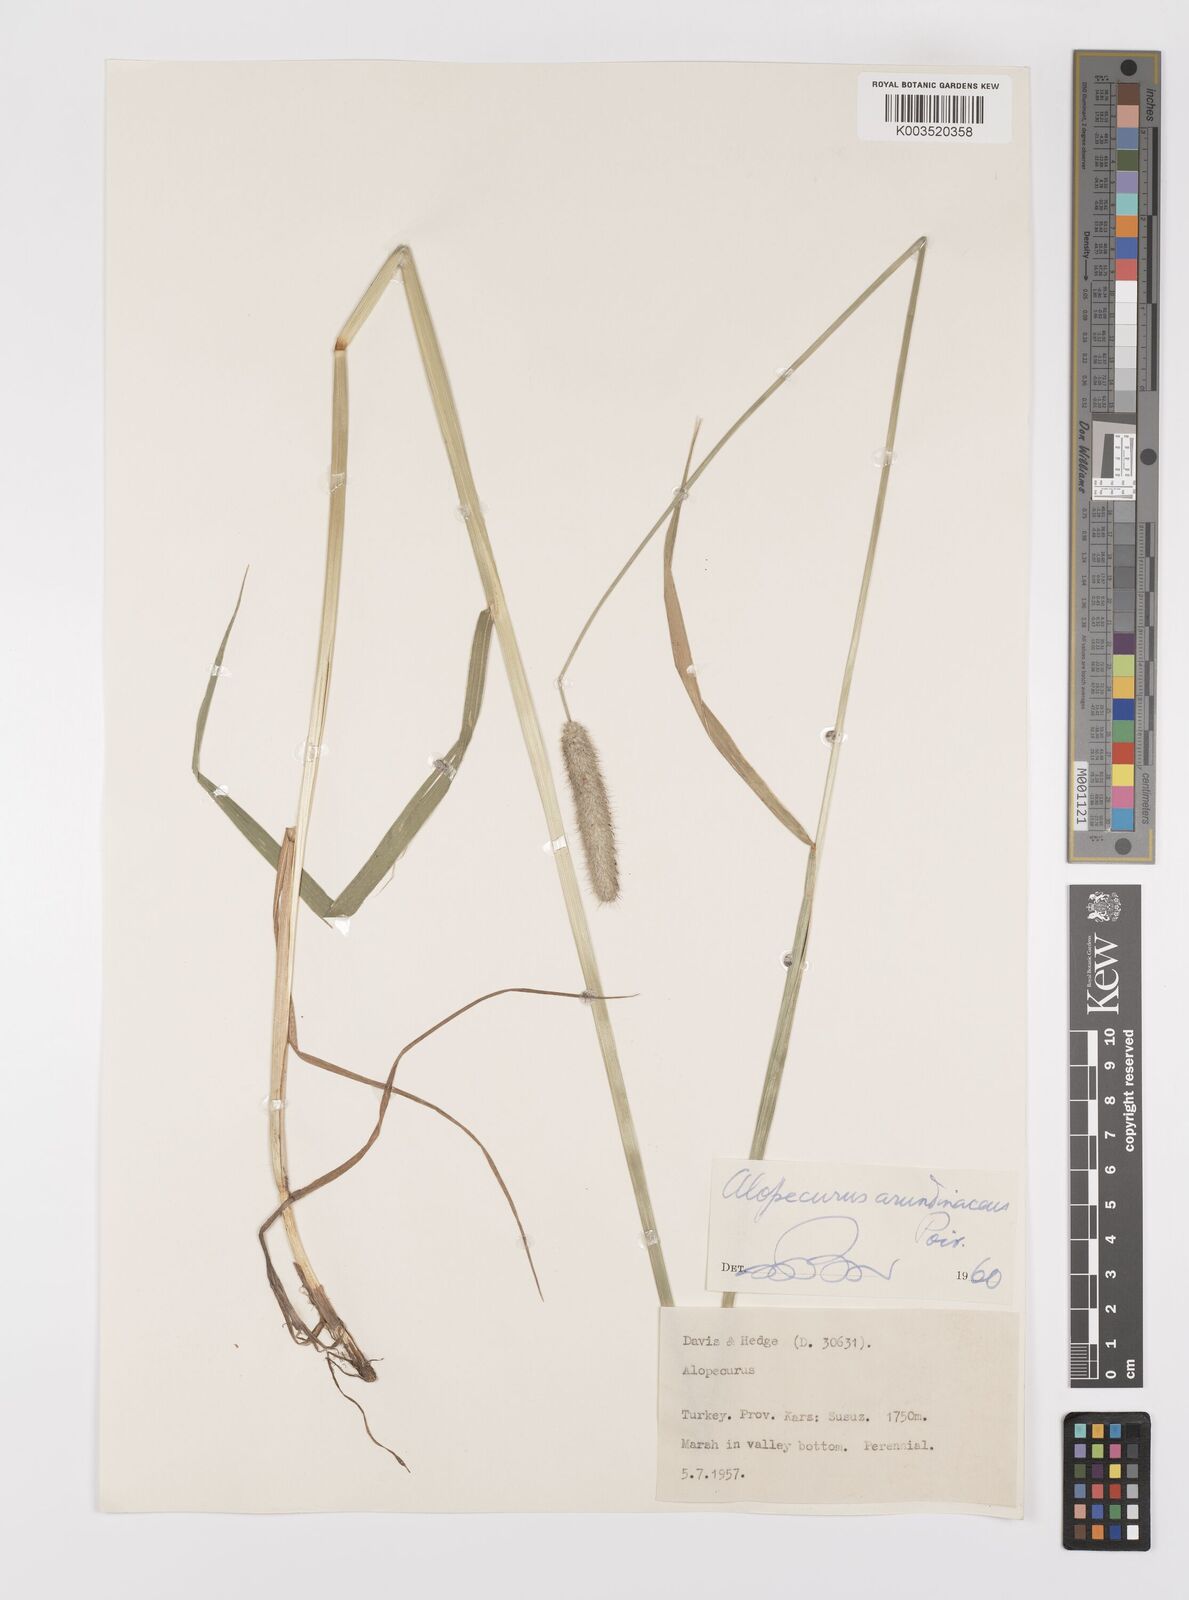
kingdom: Plantae
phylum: Tracheophyta
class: Liliopsida
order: Poales
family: Poaceae
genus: Alopecurus
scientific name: Alopecurus arundinaceus
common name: Creeping meadow foxtail
